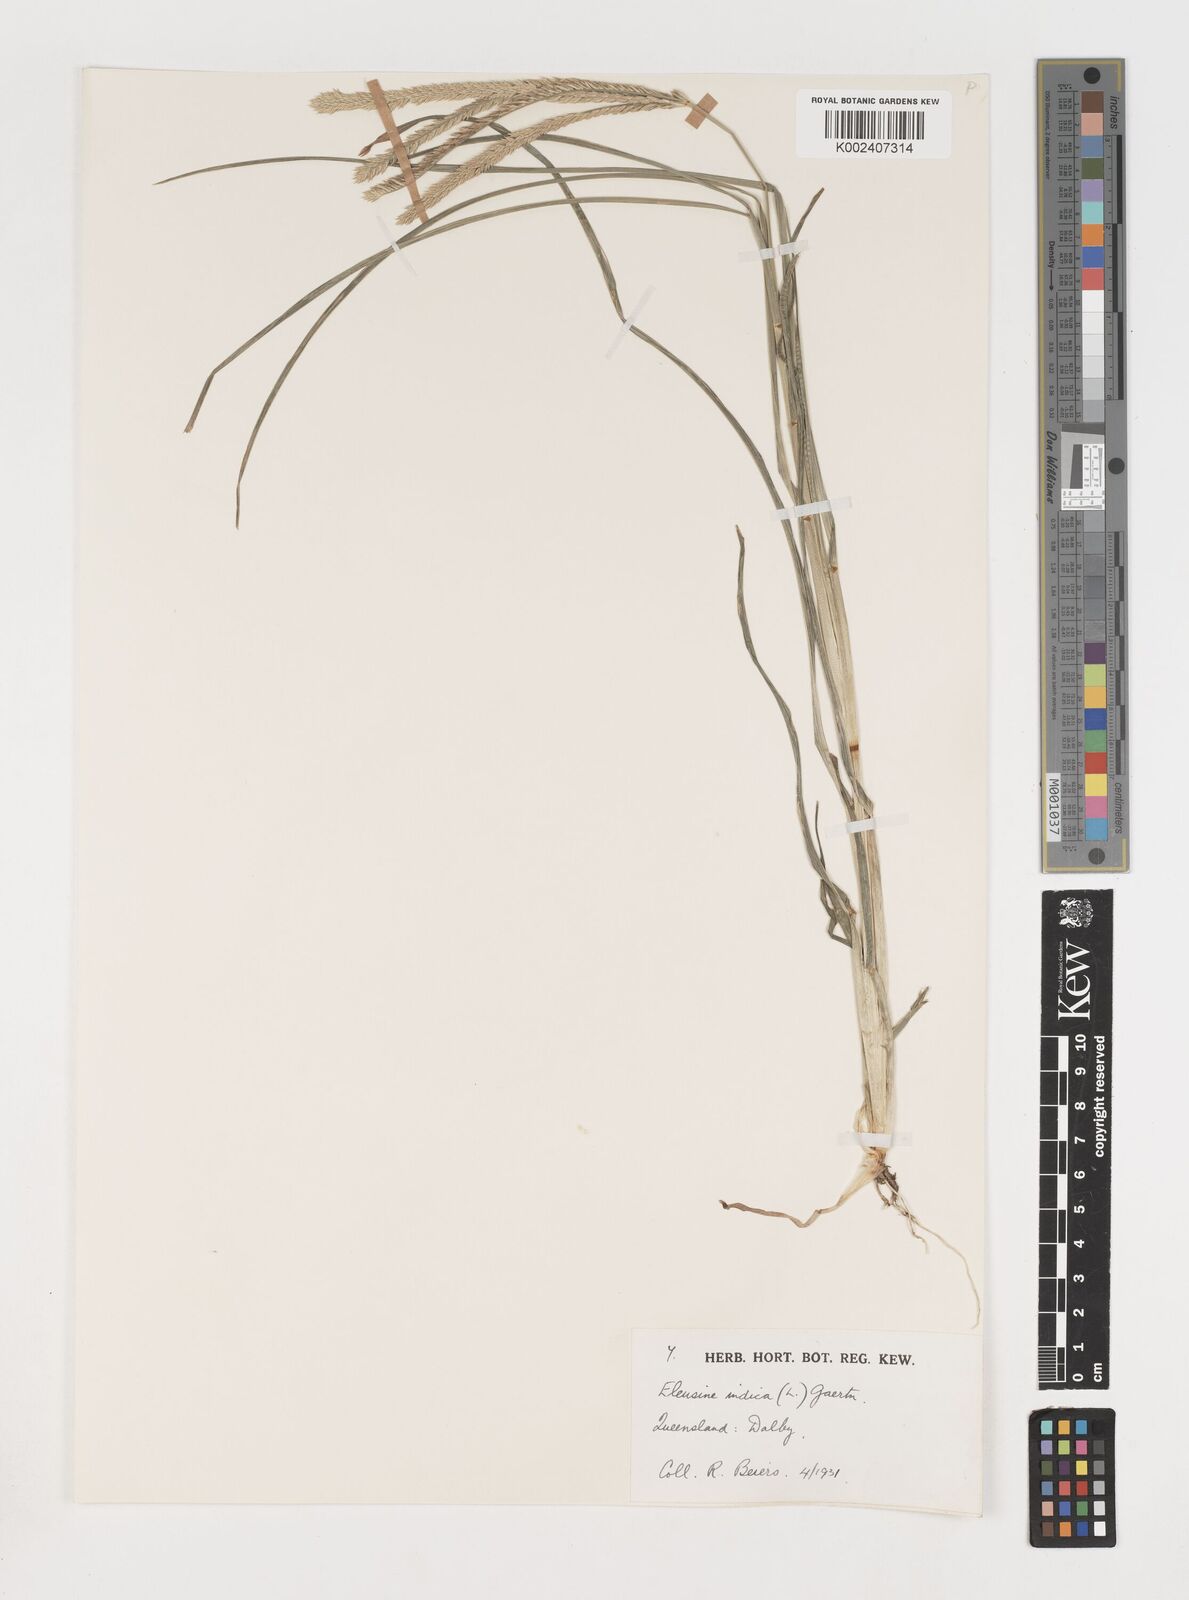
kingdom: Plantae
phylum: Tracheophyta
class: Liliopsida
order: Poales
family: Poaceae
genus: Eleusine
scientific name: Eleusine indica
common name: Yard-grass
